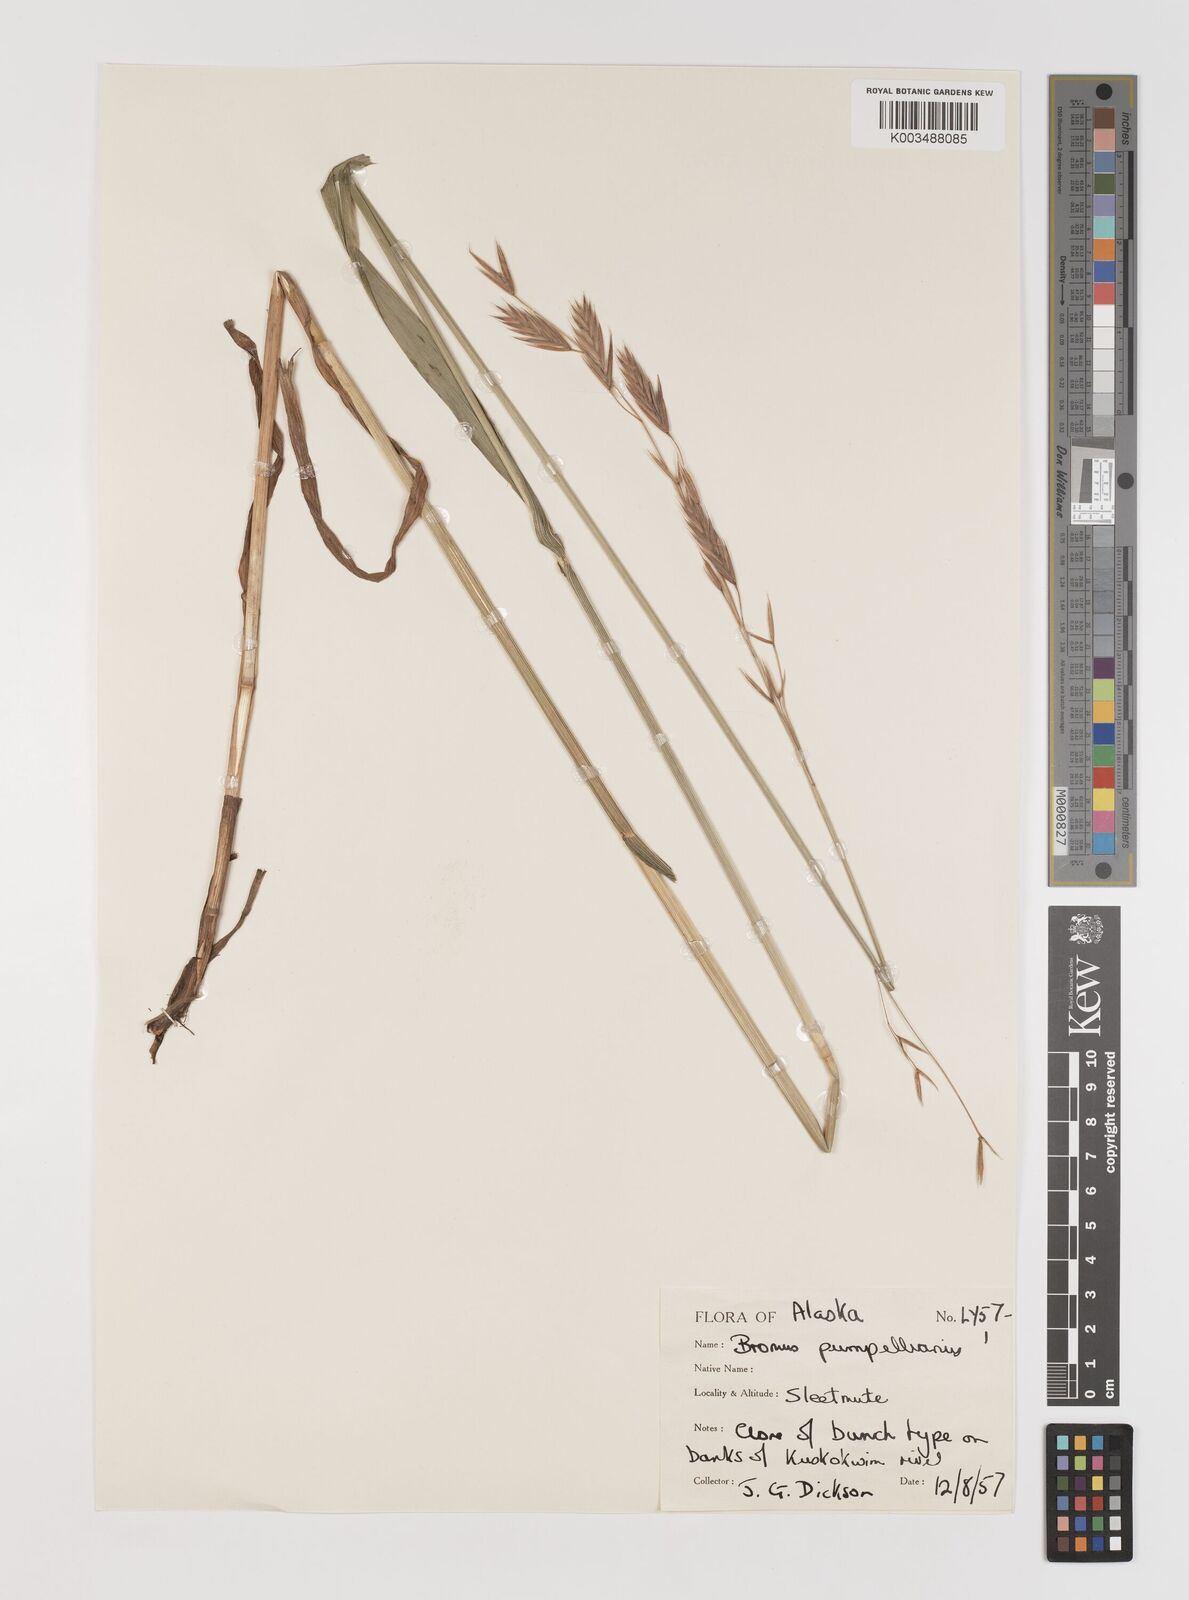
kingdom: Plantae
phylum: Tracheophyta
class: Liliopsida
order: Poales
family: Poaceae
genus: Bromus
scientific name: Bromus pumpellianus
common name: Pumpelly's brome
